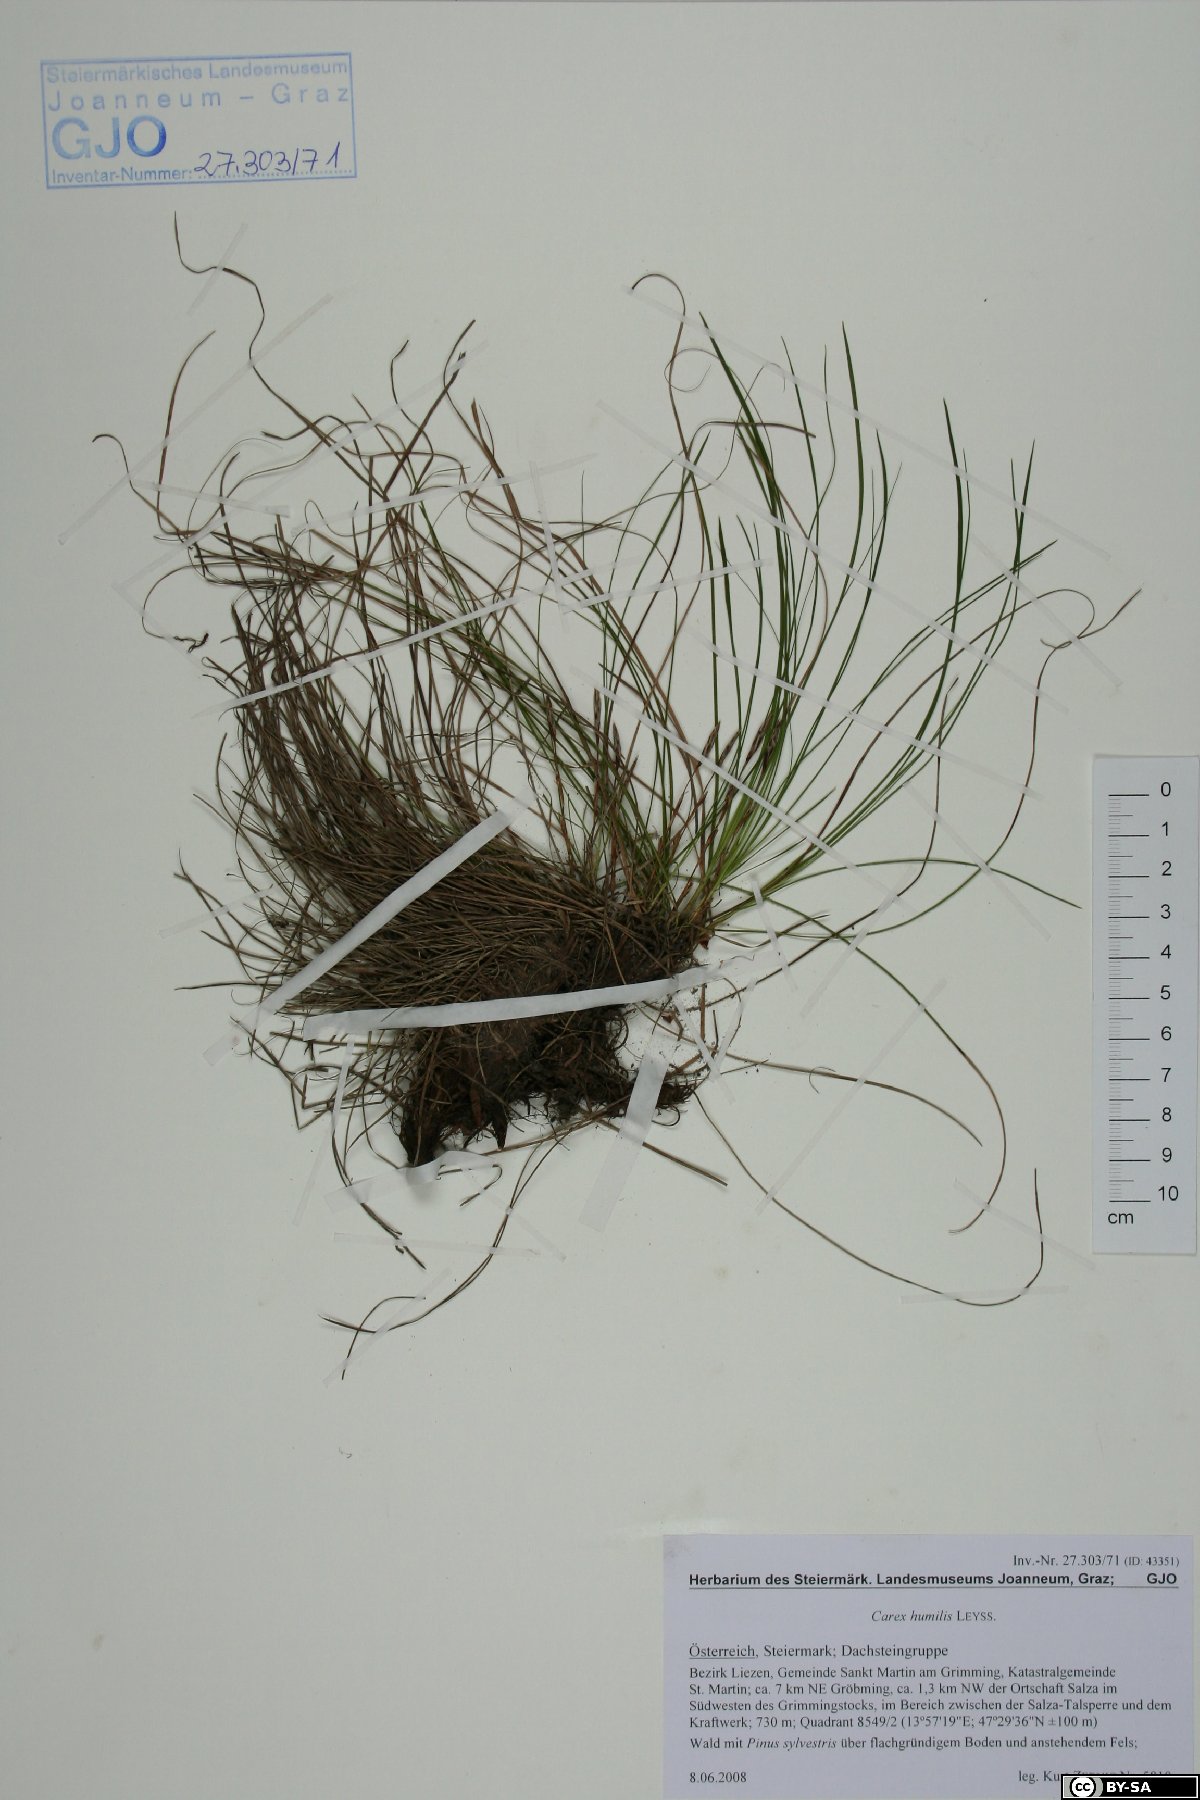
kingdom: Plantae
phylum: Tracheophyta
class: Liliopsida
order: Poales
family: Cyperaceae
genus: Carex
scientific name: Carex humilis
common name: Dwarf sedge
